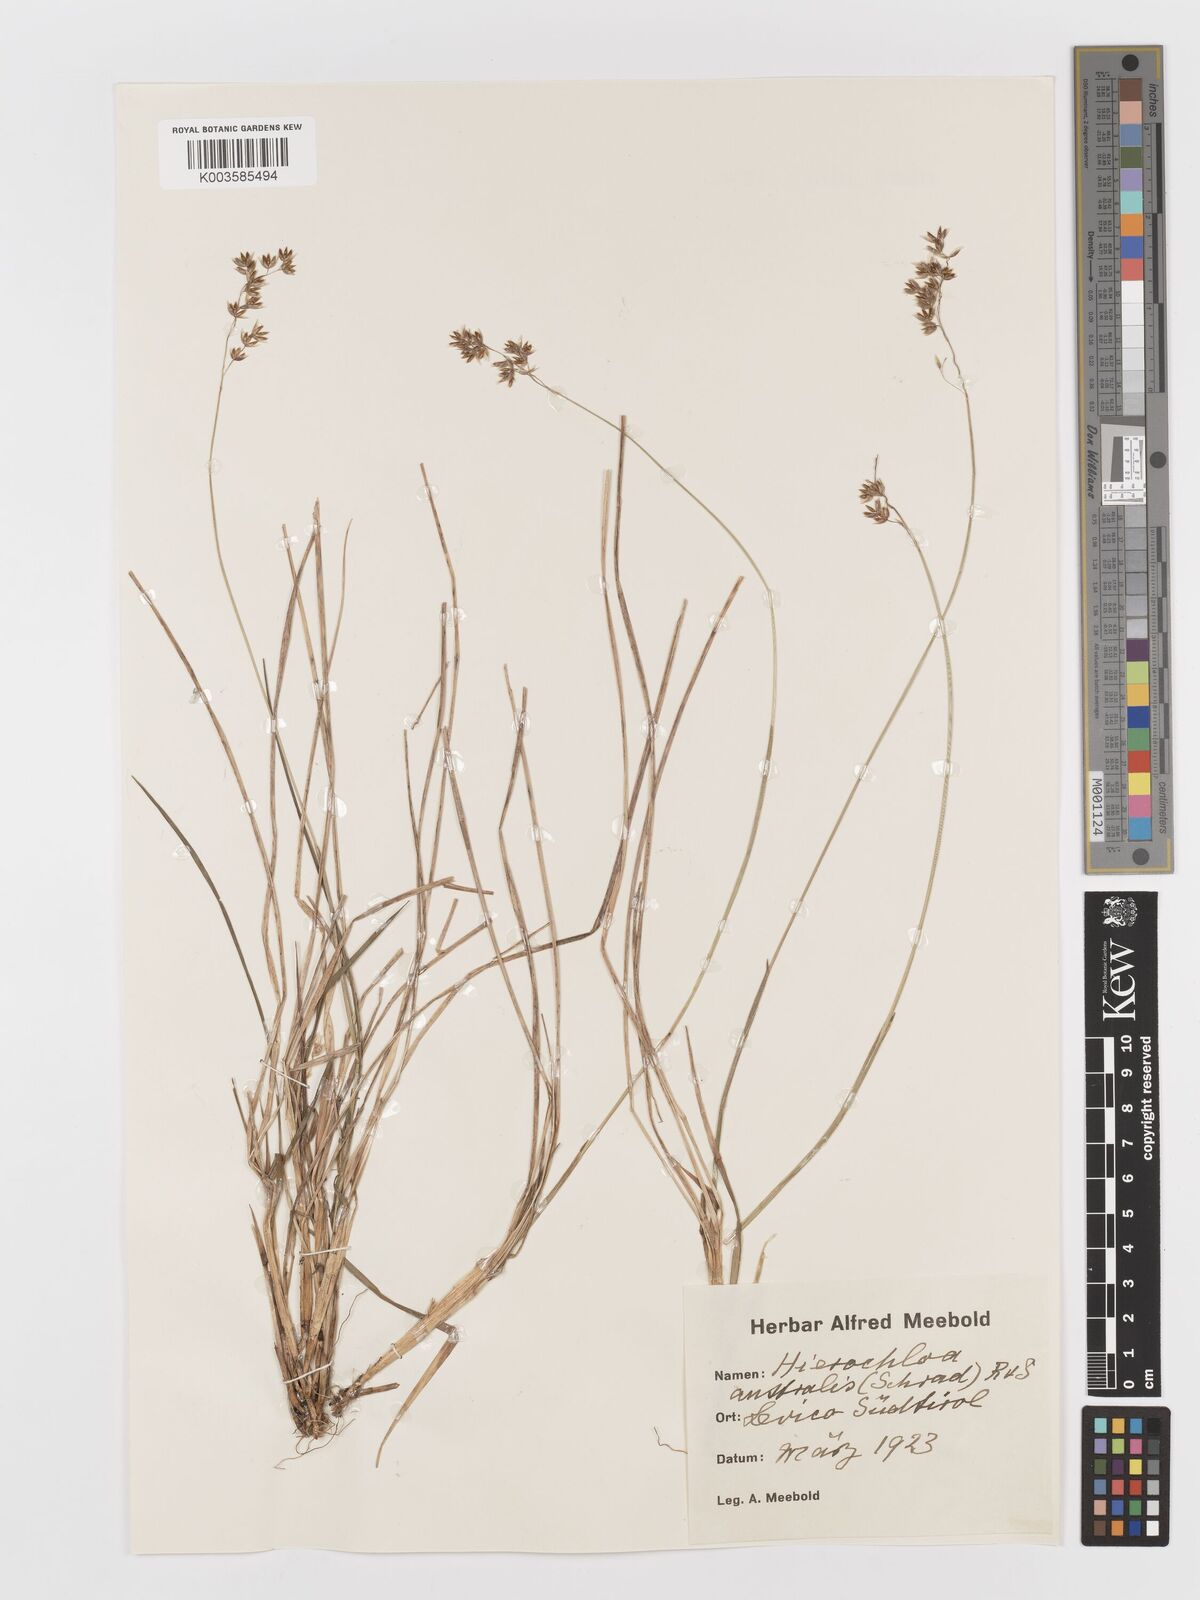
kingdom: Plantae
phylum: Tracheophyta
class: Liliopsida
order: Poales
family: Poaceae
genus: Anthoxanthum
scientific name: Anthoxanthum australe
